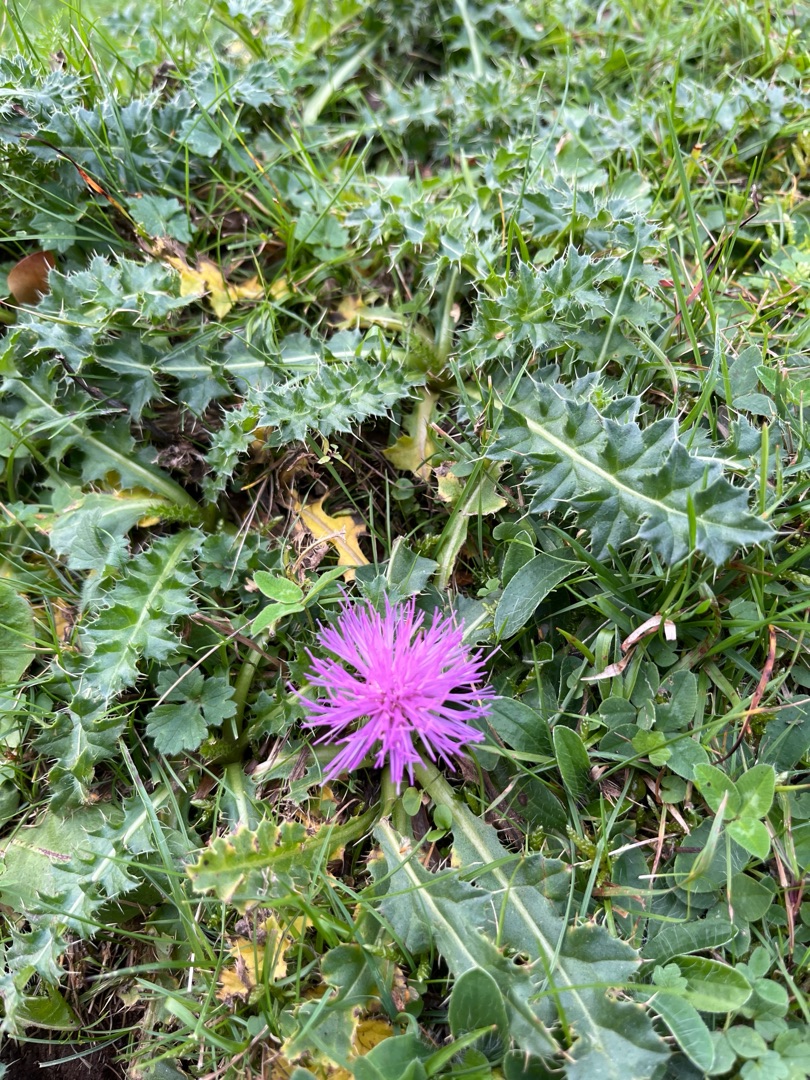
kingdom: Plantae
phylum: Tracheophyta
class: Magnoliopsida
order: Asterales
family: Asteraceae
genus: Cirsium
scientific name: Cirsium acaule
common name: Lav tidsel
